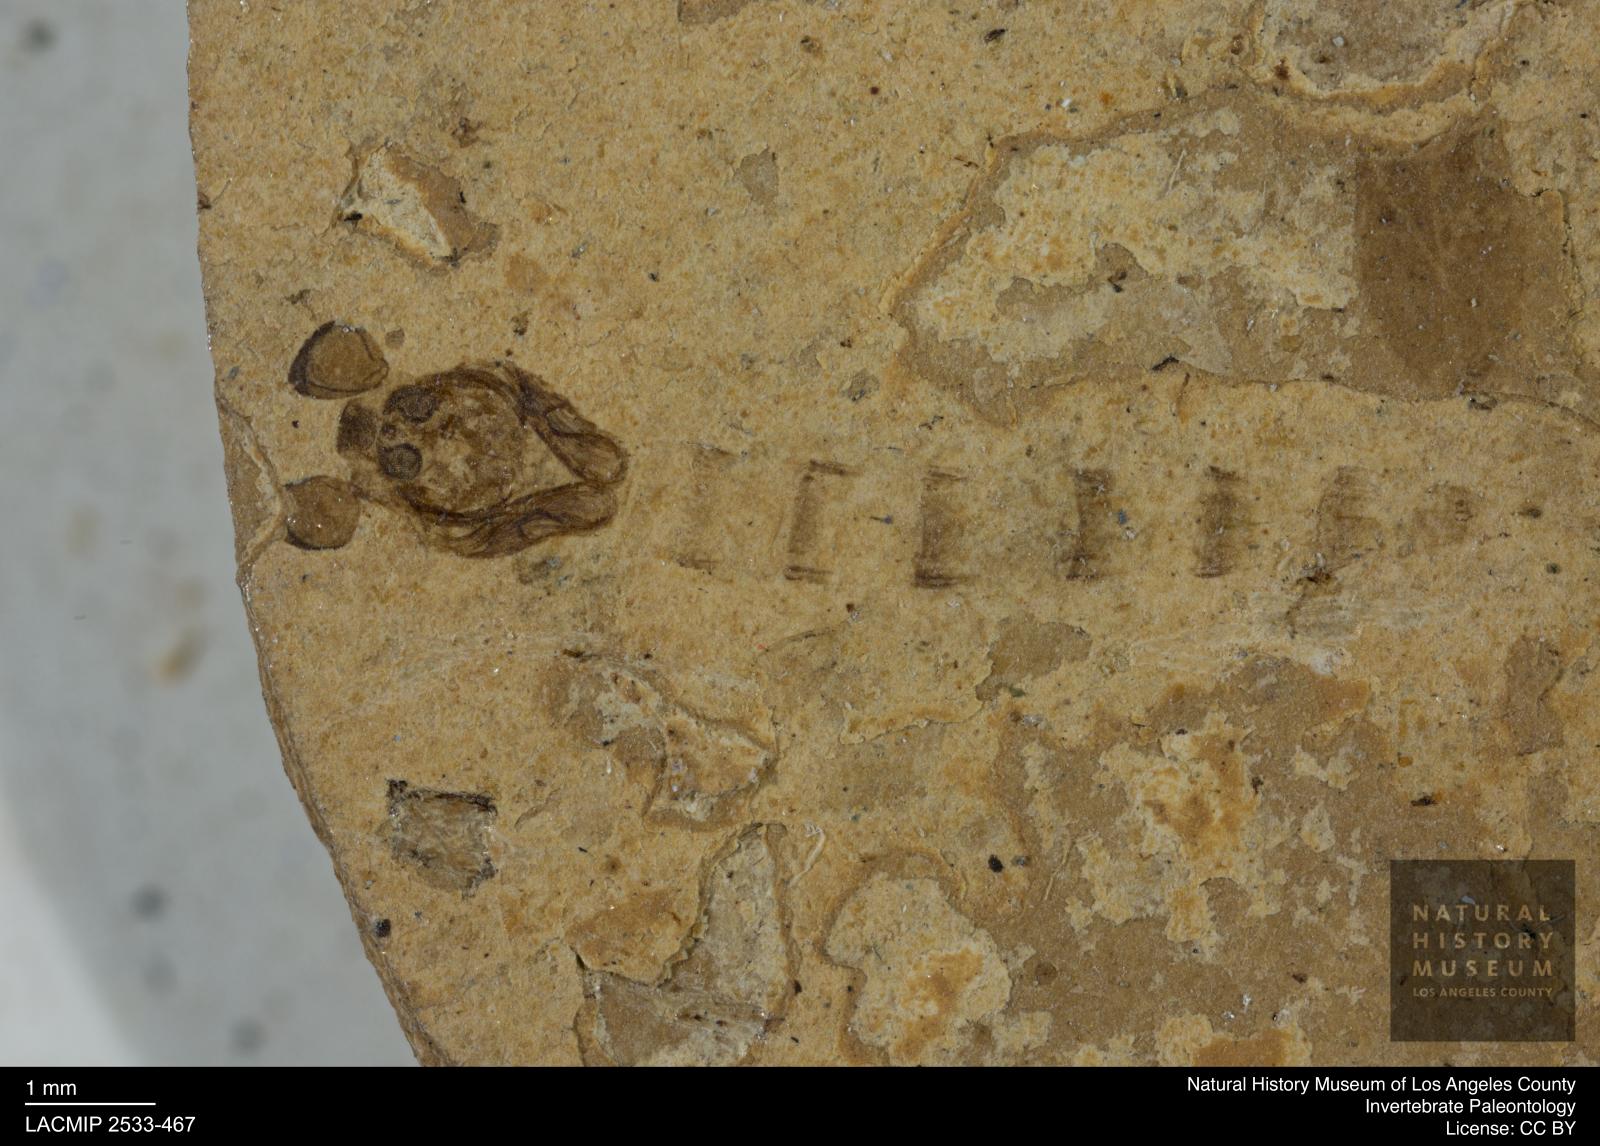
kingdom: Animalia
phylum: Arthropoda
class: Insecta
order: Diptera
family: Chironomidae
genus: Tanypus
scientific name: Tanypus
